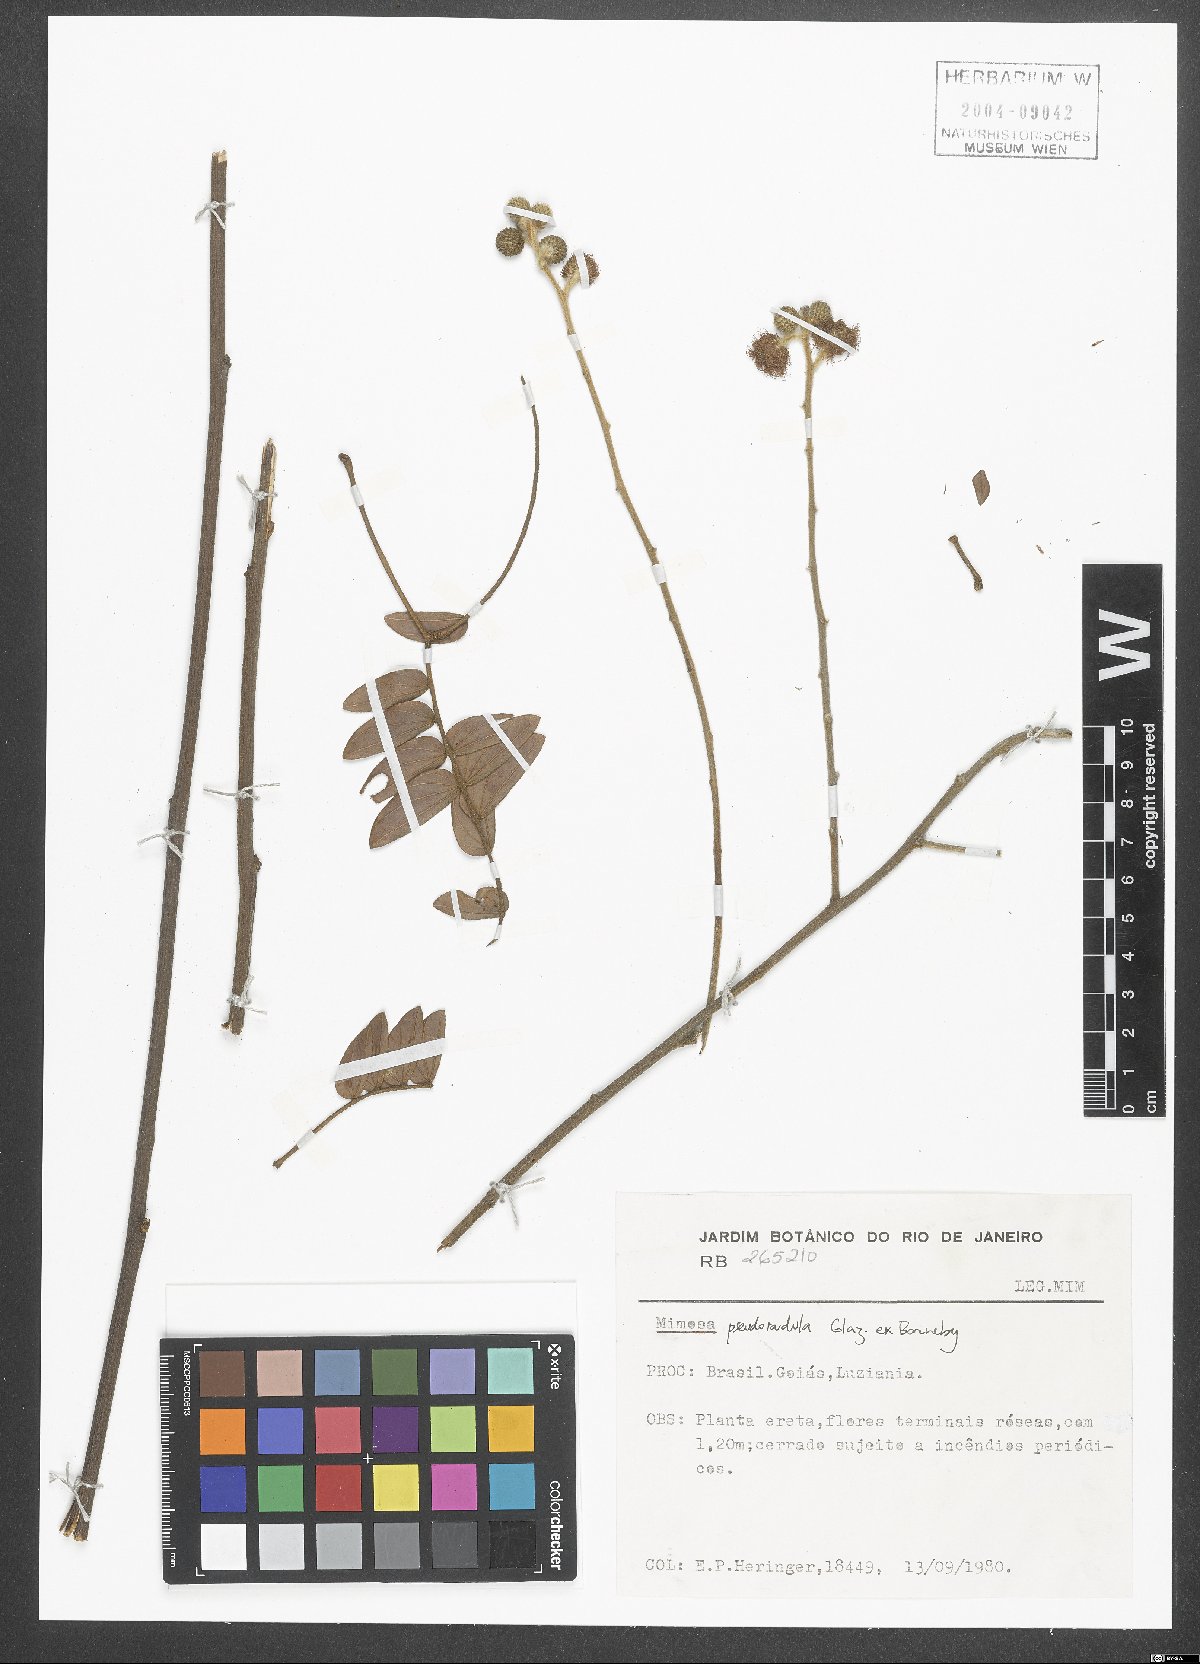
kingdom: Plantae
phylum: Tracheophyta
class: Magnoliopsida
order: Fabales
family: Fabaceae
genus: Mimosa
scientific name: Mimosa pseudoradula
